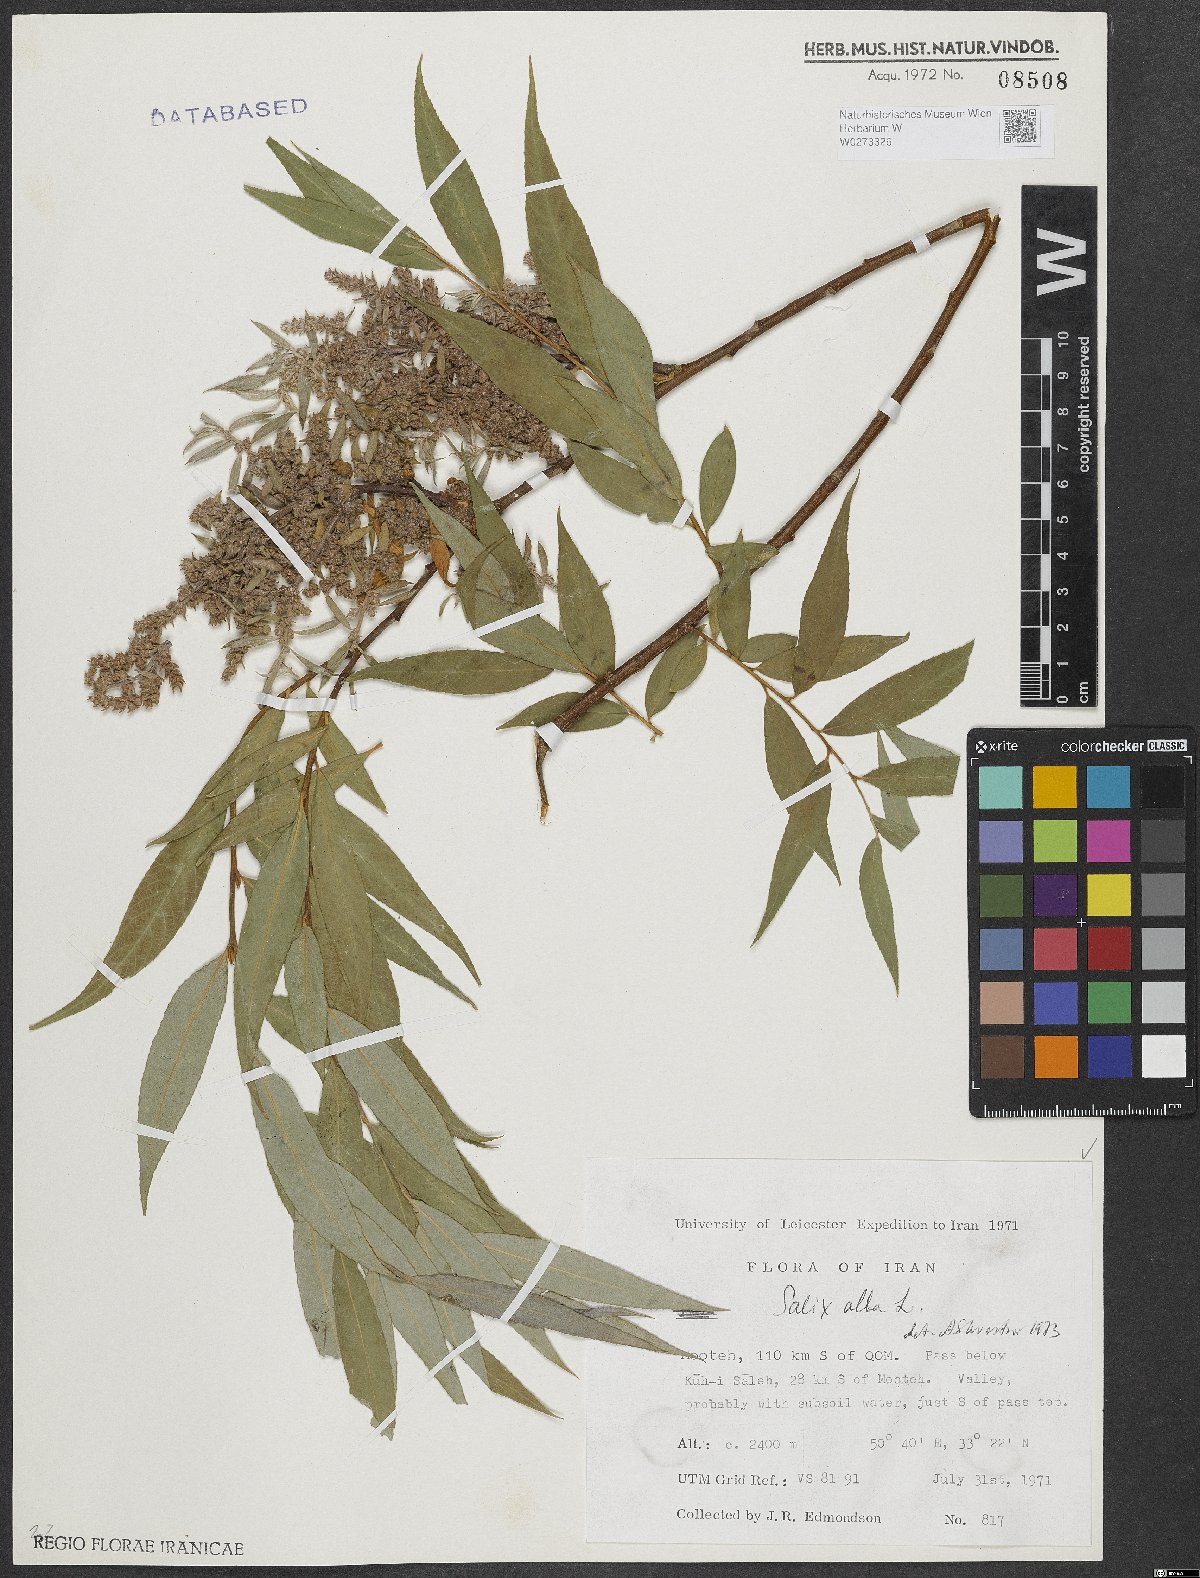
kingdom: Plantae
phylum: Tracheophyta
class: Magnoliopsida
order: Malpighiales
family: Salicaceae
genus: Salix
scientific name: Salix alba
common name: White willow
